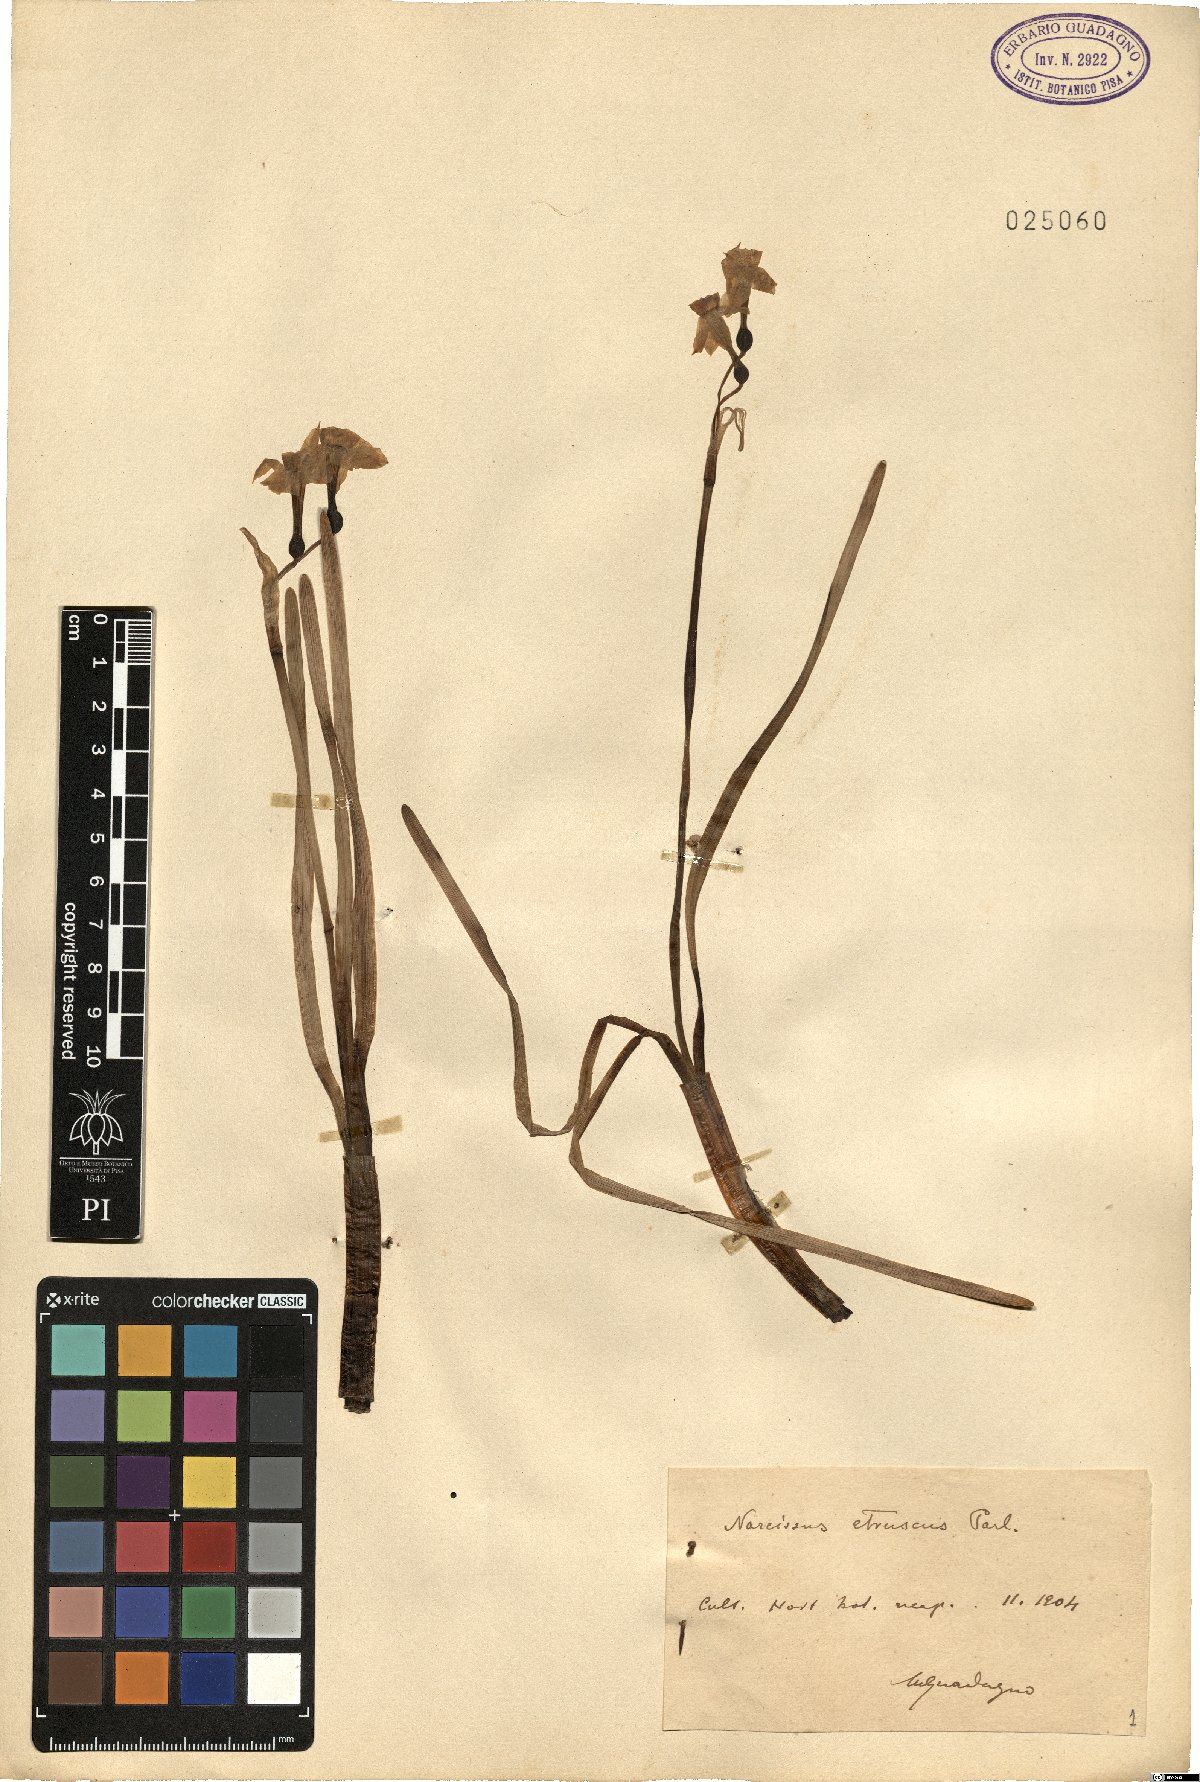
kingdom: Plantae
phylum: Tracheophyta
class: Liliopsida
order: Asparagales
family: Amaryllidaceae
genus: Narcissus
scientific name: Narcissus tazetta
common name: Bunch-flowered daffodil
